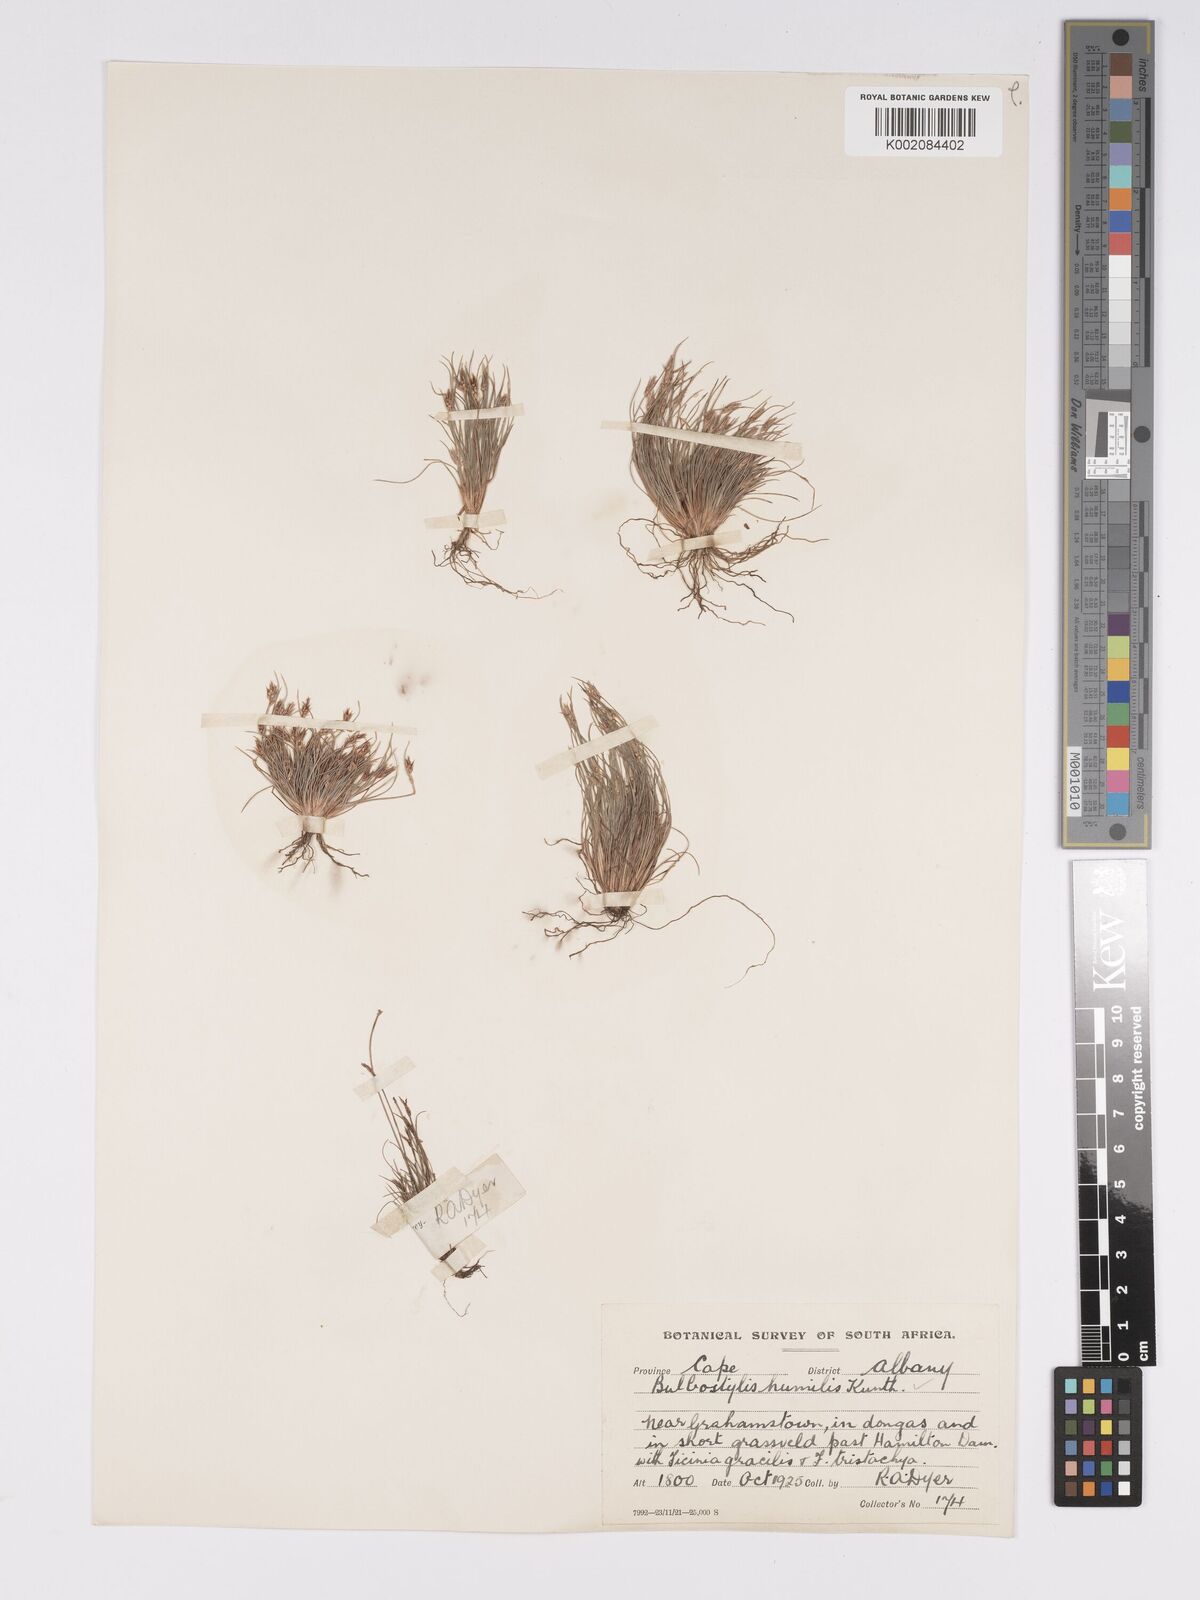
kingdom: Plantae
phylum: Tracheophyta
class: Liliopsida
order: Poales
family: Cyperaceae
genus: Bulbostylis
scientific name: Bulbostylis humilis
